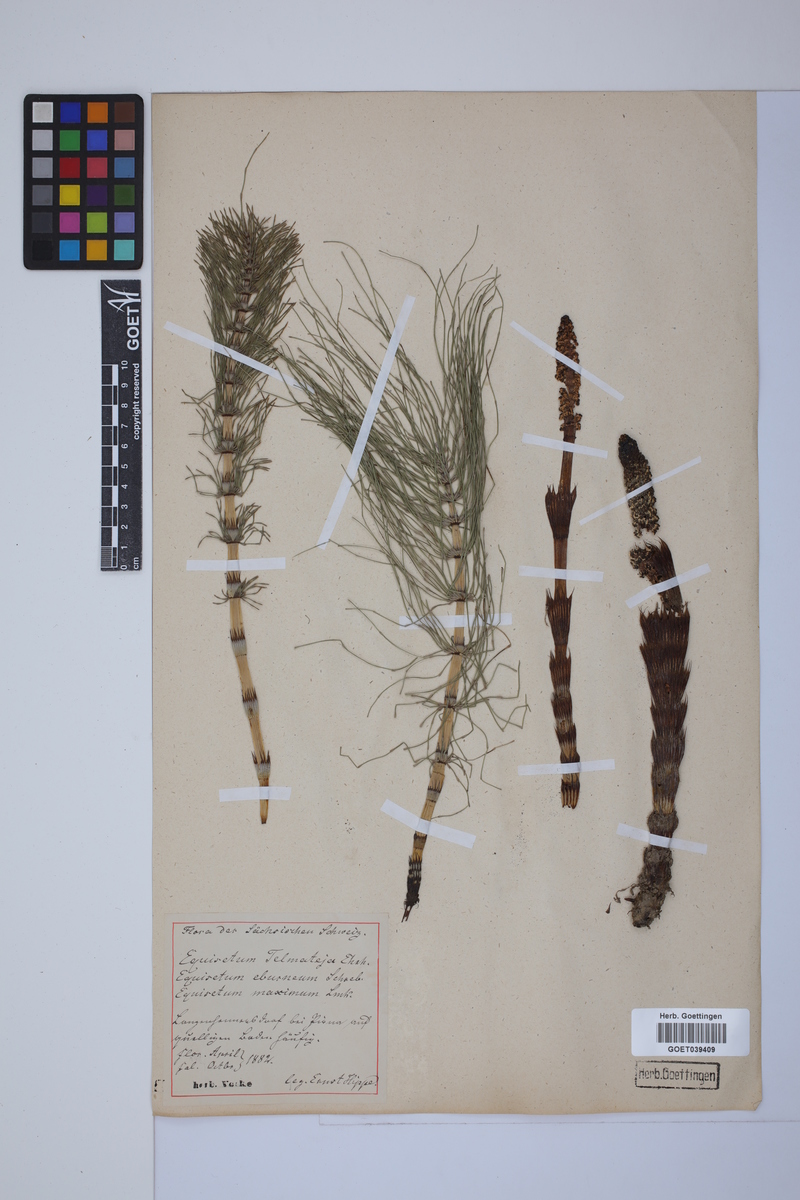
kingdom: Plantae
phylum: Tracheophyta
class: Polypodiopsida
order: Equisetales
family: Equisetaceae
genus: Equisetum
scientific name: Equisetum telmateia
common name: Great horsetail
